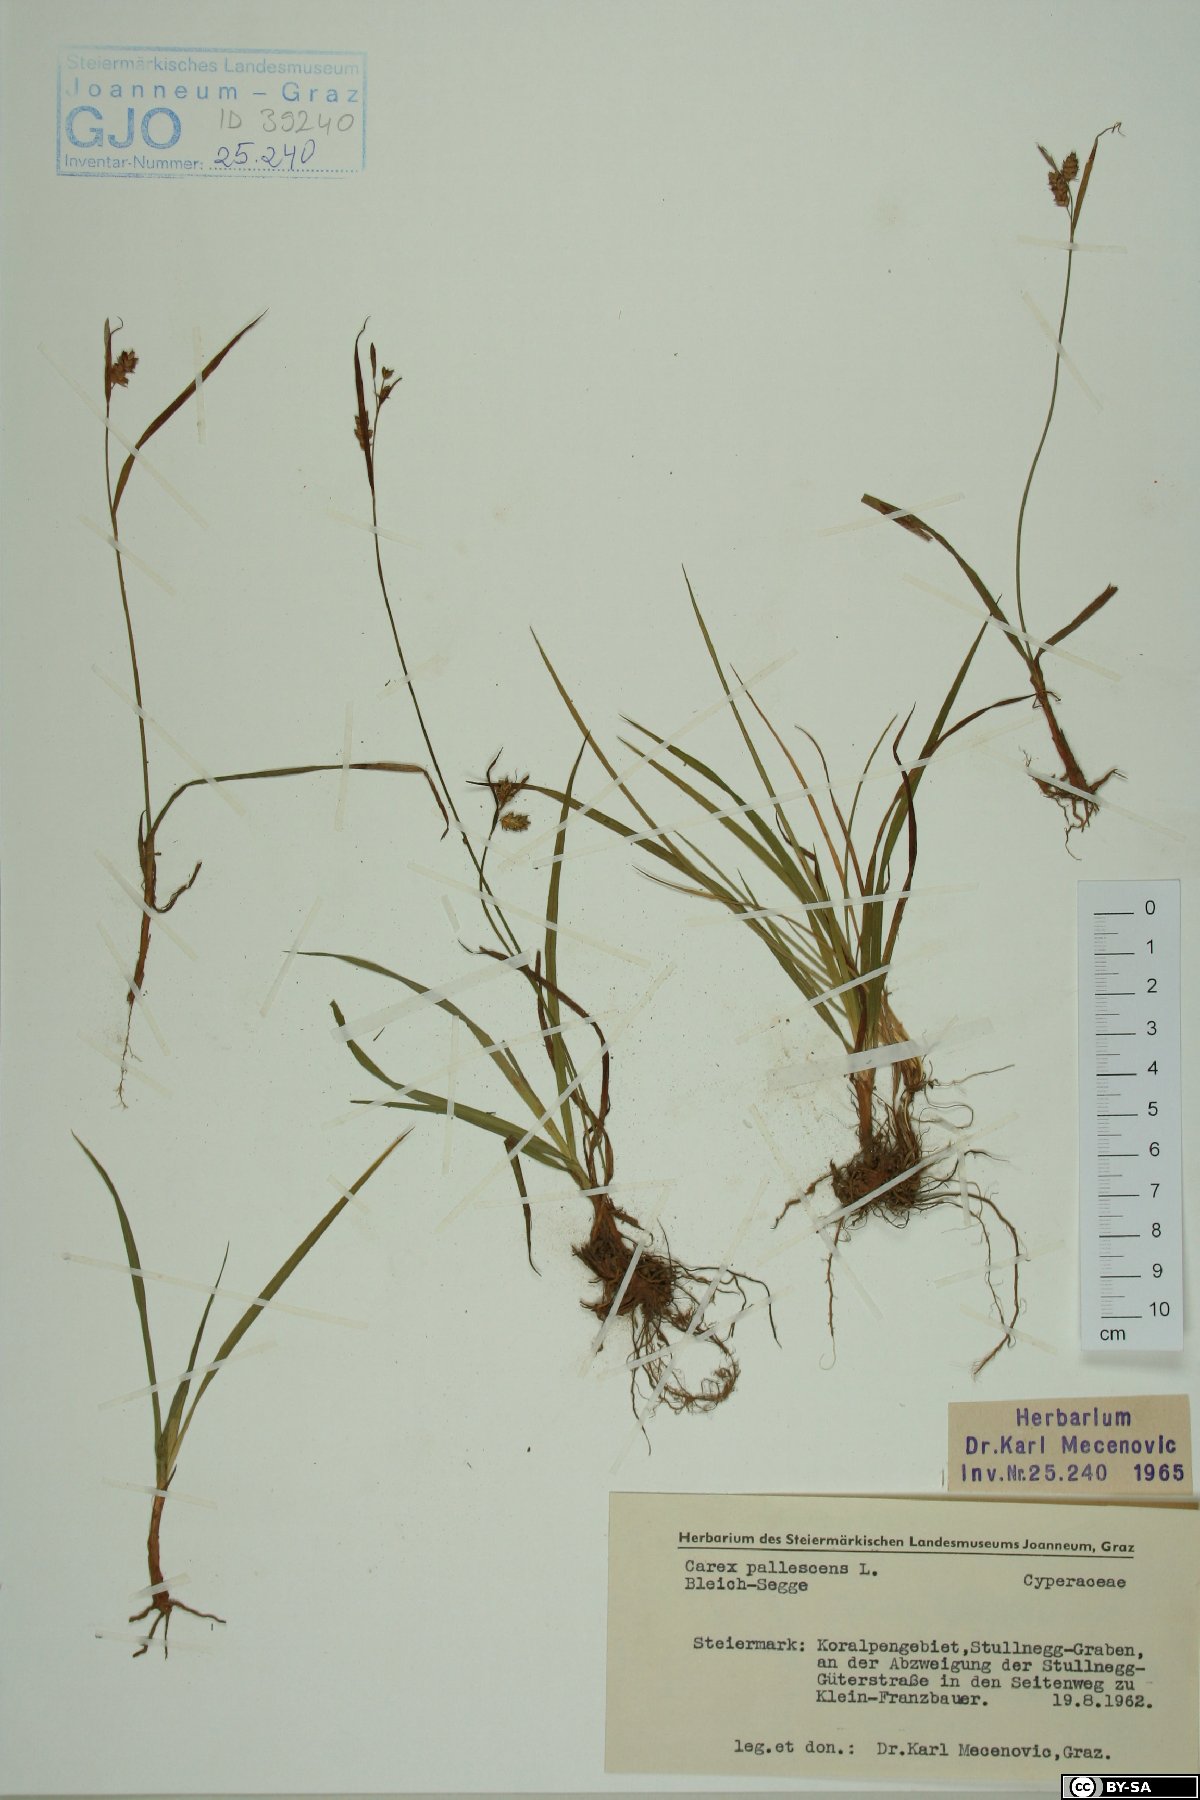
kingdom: Plantae
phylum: Tracheophyta
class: Liliopsida
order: Poales
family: Cyperaceae
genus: Carex
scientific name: Carex pallescens
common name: Pale sedge
